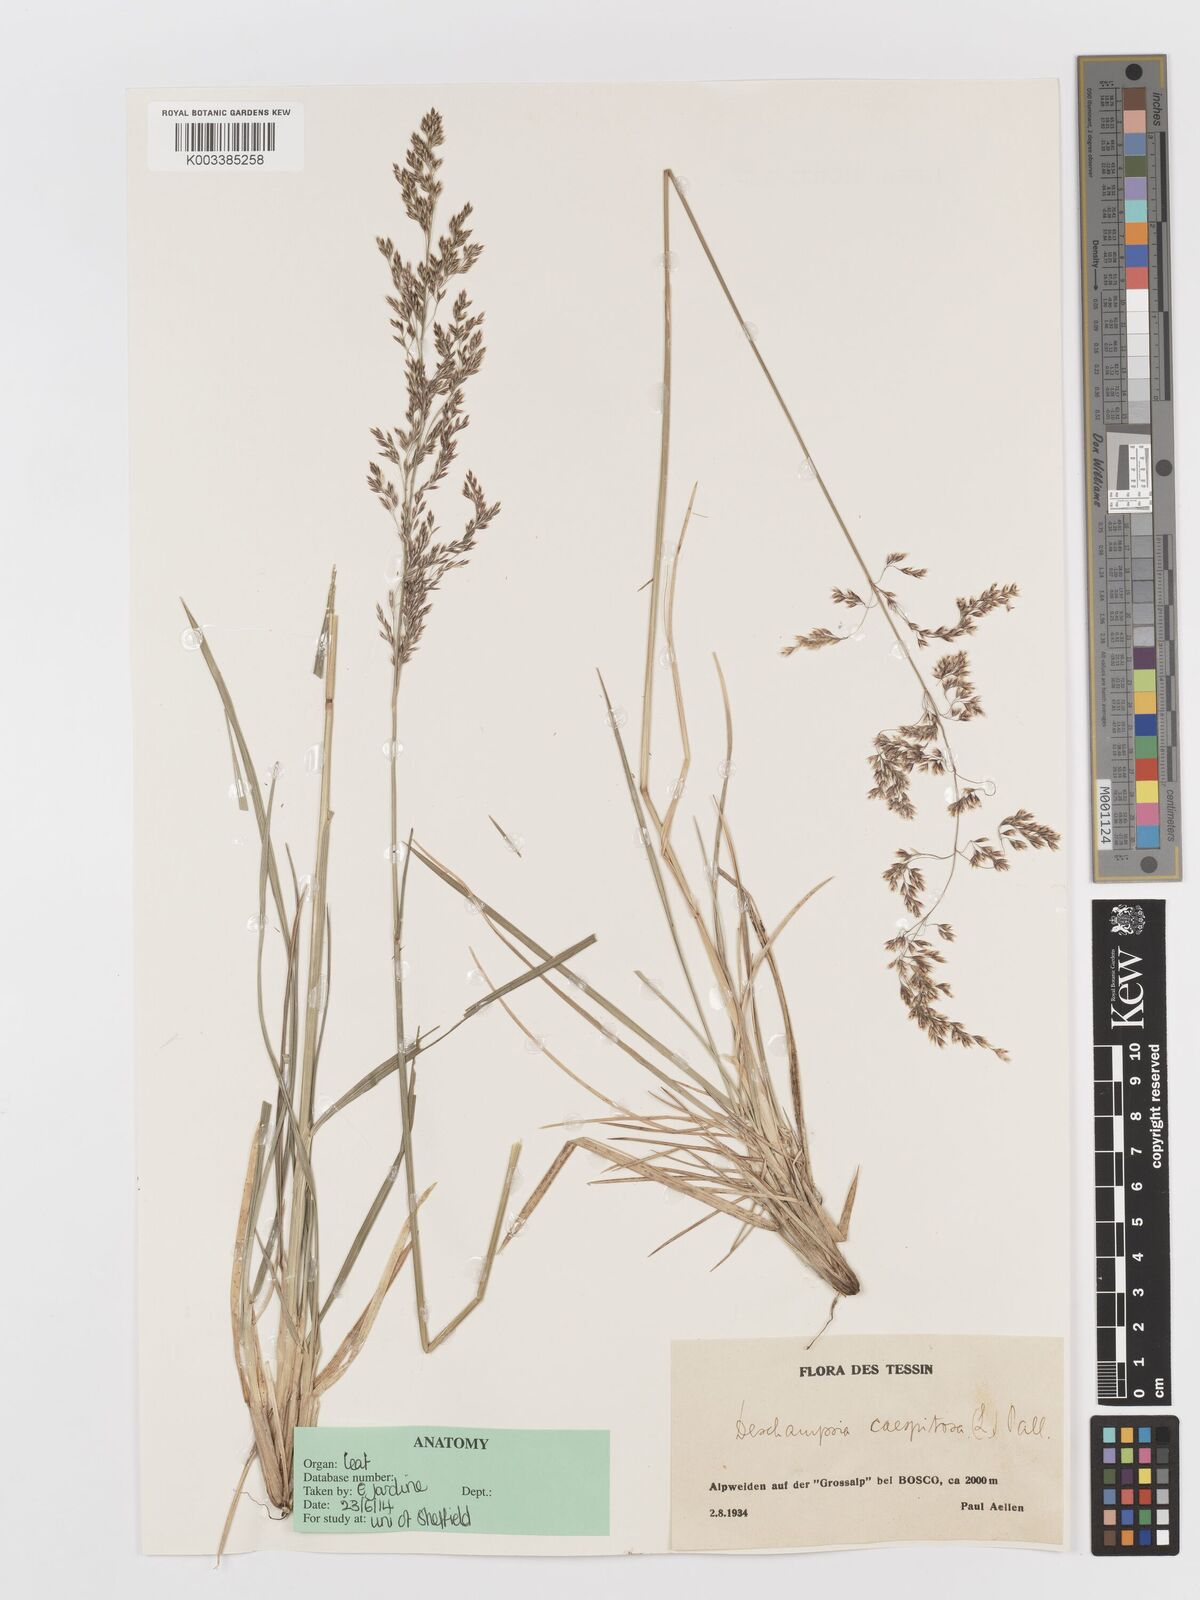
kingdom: Plantae
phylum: Tracheophyta
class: Liliopsida
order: Poales
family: Poaceae
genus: Deschampsia
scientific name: Deschampsia cespitosa
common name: Tufted hair-grass
